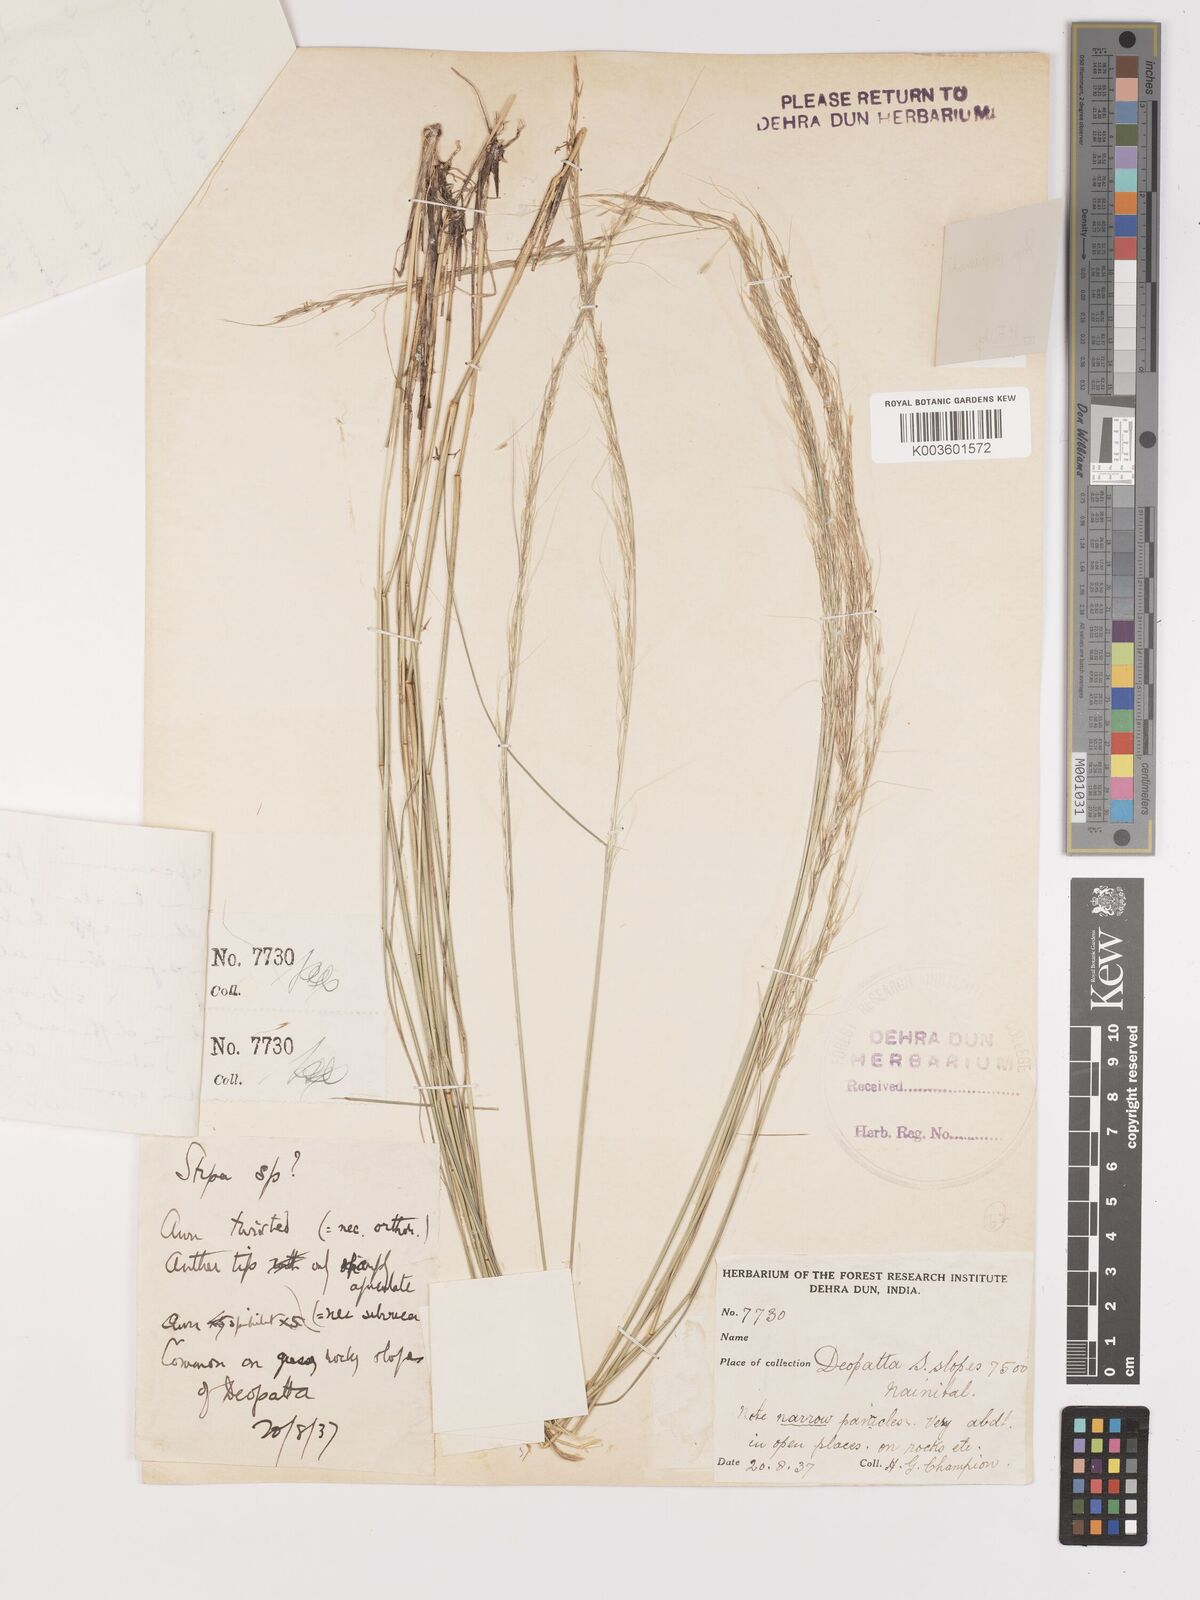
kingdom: Plantae
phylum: Tracheophyta
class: Liliopsida
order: Poales
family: Poaceae
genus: Achnatherum
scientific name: Achnatherum jacquemontii
